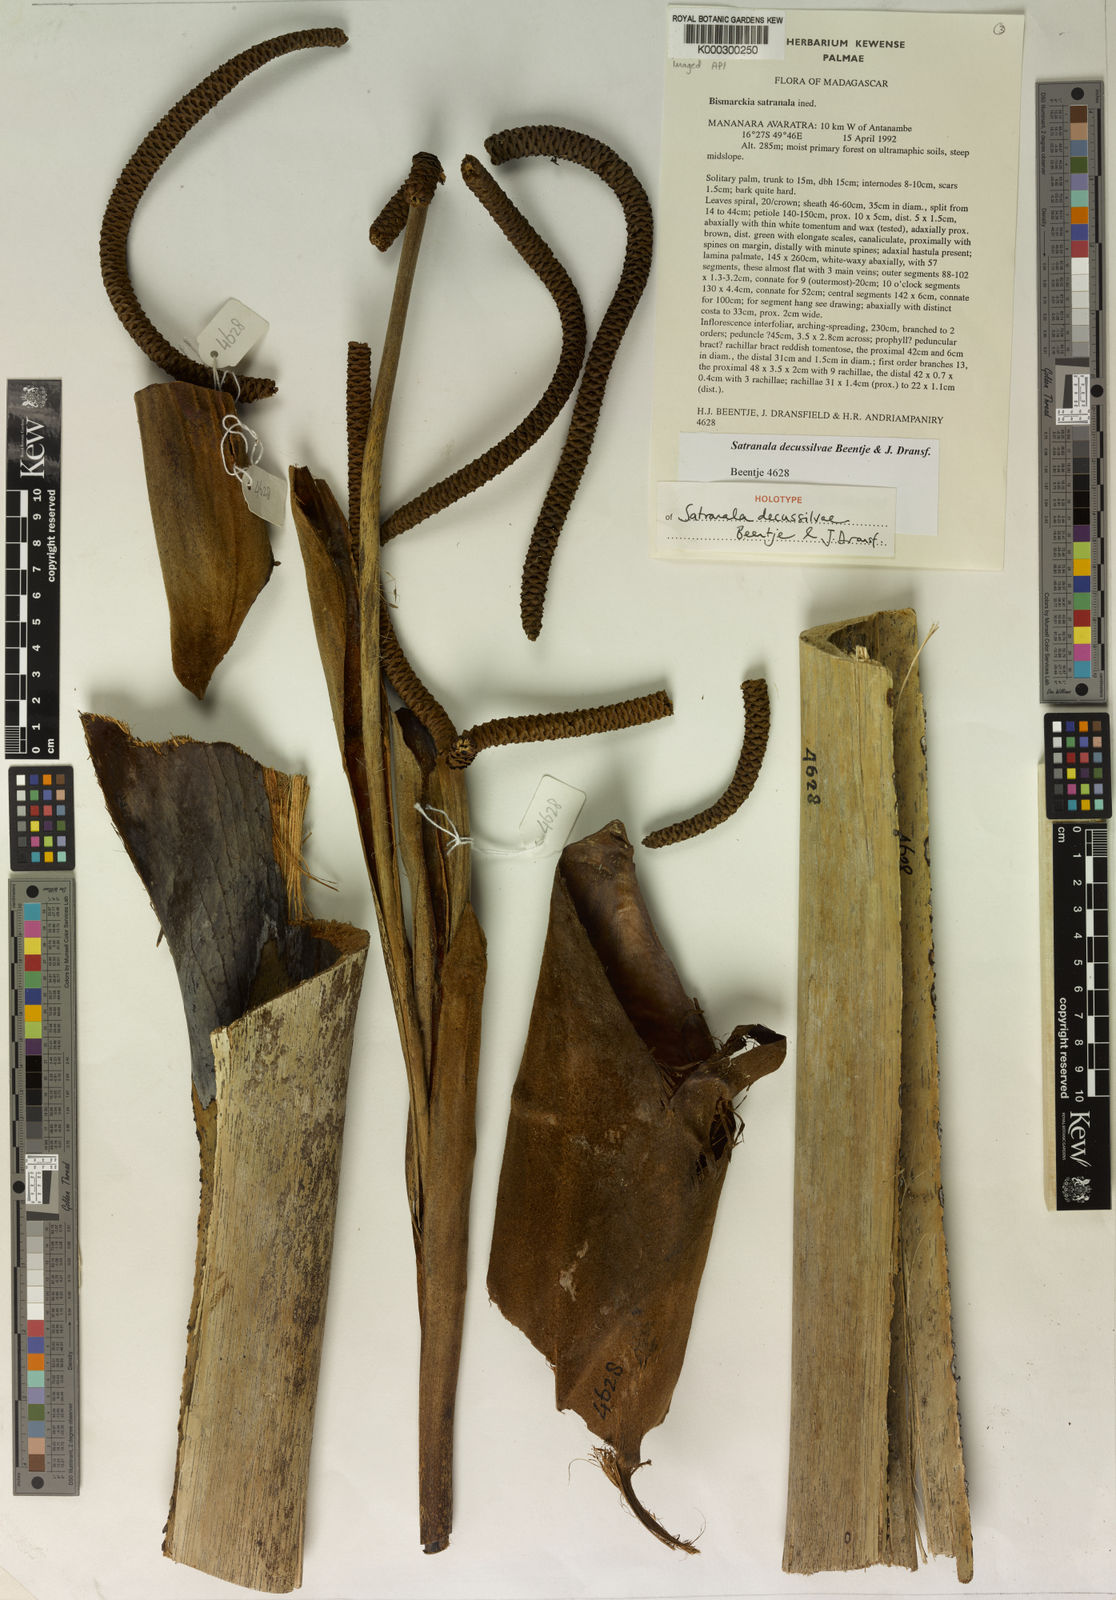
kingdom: Plantae
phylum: Tracheophyta
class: Liliopsida
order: Arecales
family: Arecaceae
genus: Satranala
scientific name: Satranala decussilvae
